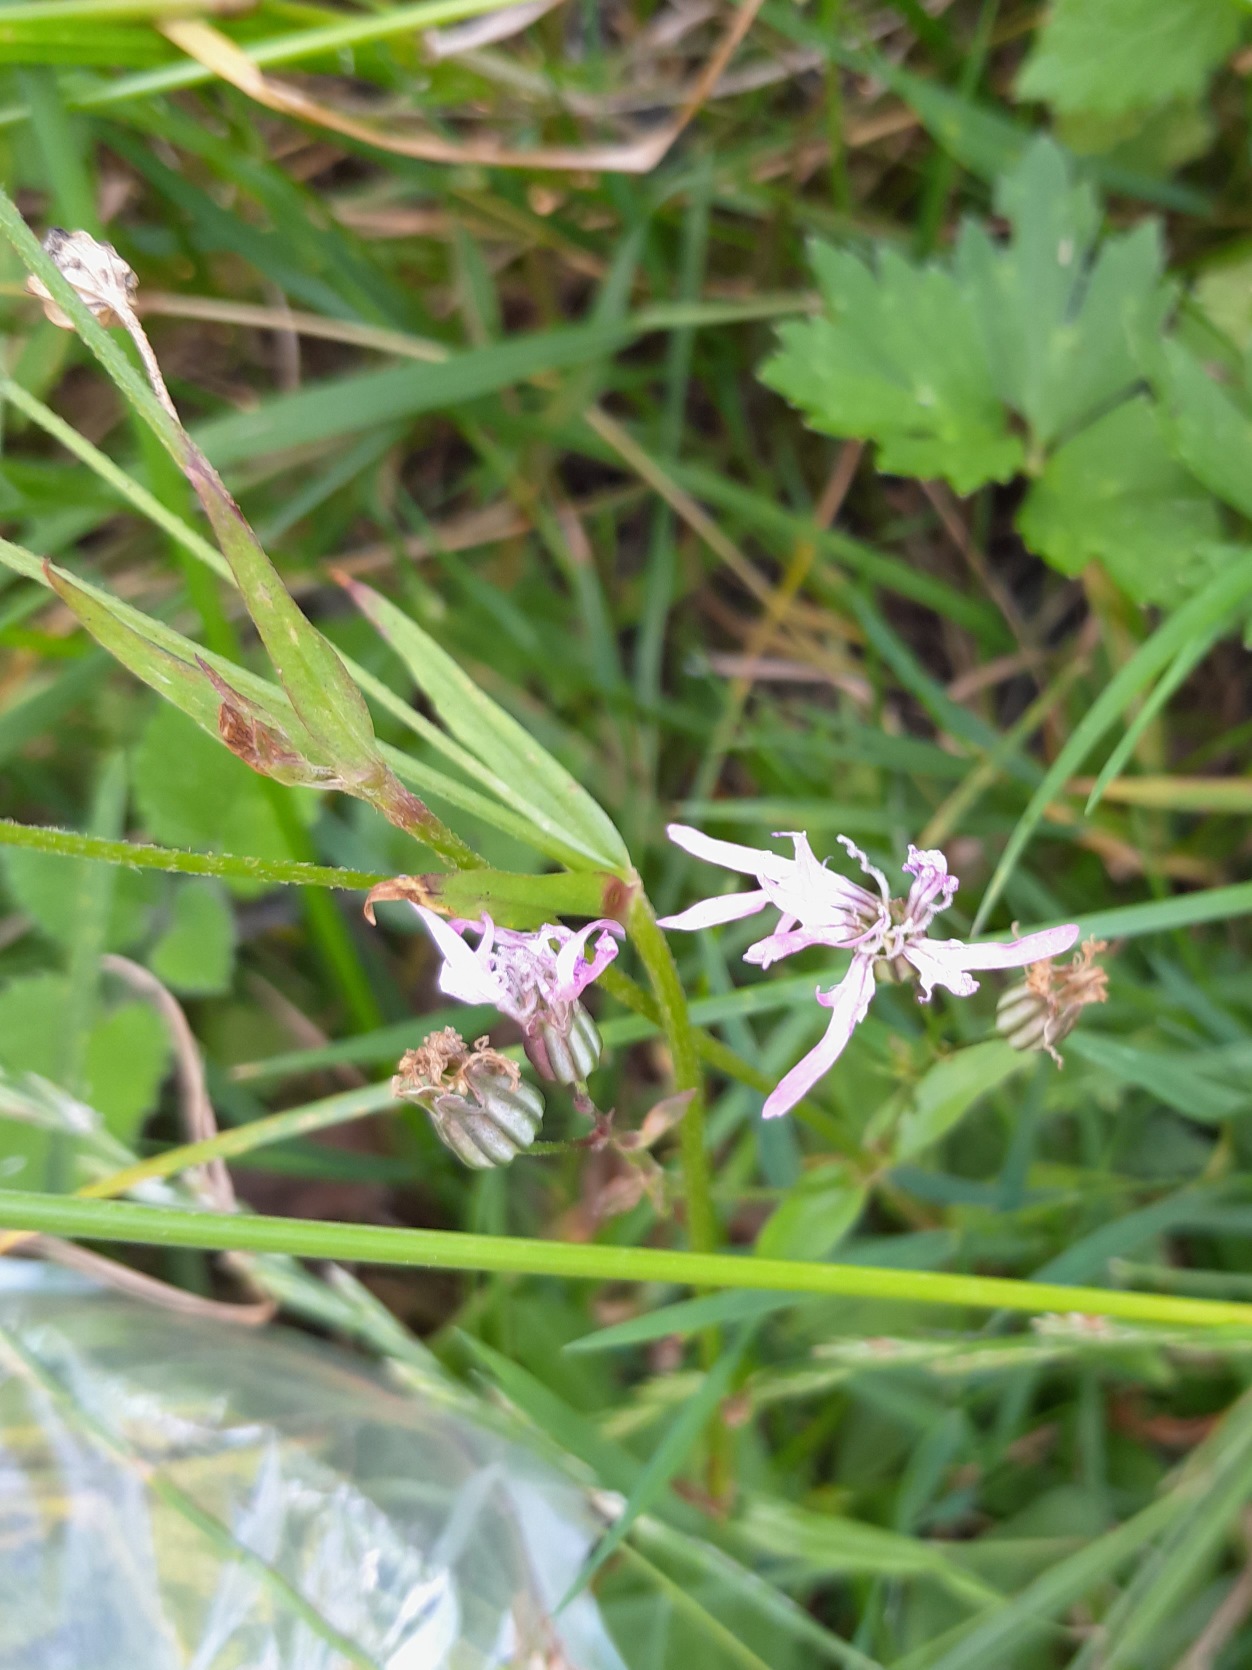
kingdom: Plantae
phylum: Tracheophyta
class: Magnoliopsida
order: Caryophyllales
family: Caryophyllaceae
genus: Silene
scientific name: Silene flos-cuculi
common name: Trævlekrone
